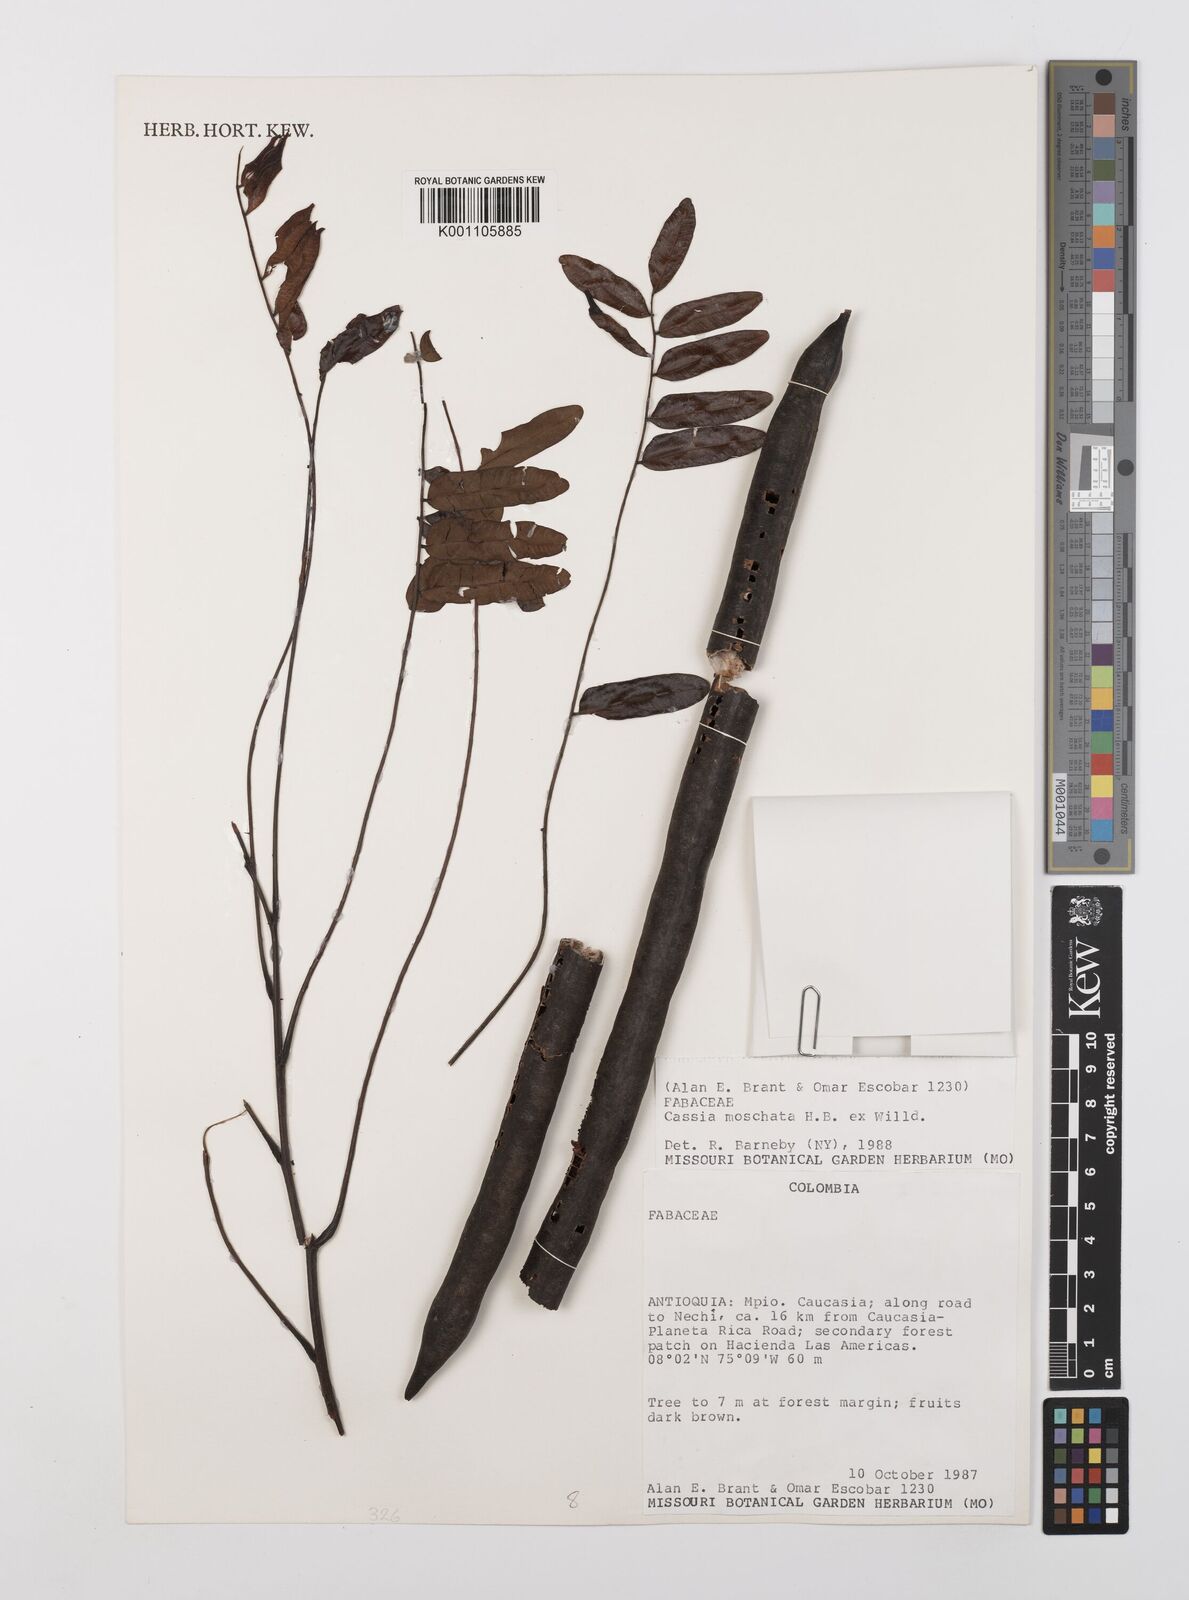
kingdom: Plantae
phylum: Tracheophyta
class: Magnoliopsida
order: Fabales
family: Fabaceae
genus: Cassia
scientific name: Cassia moschata
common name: Bronze shower tree
